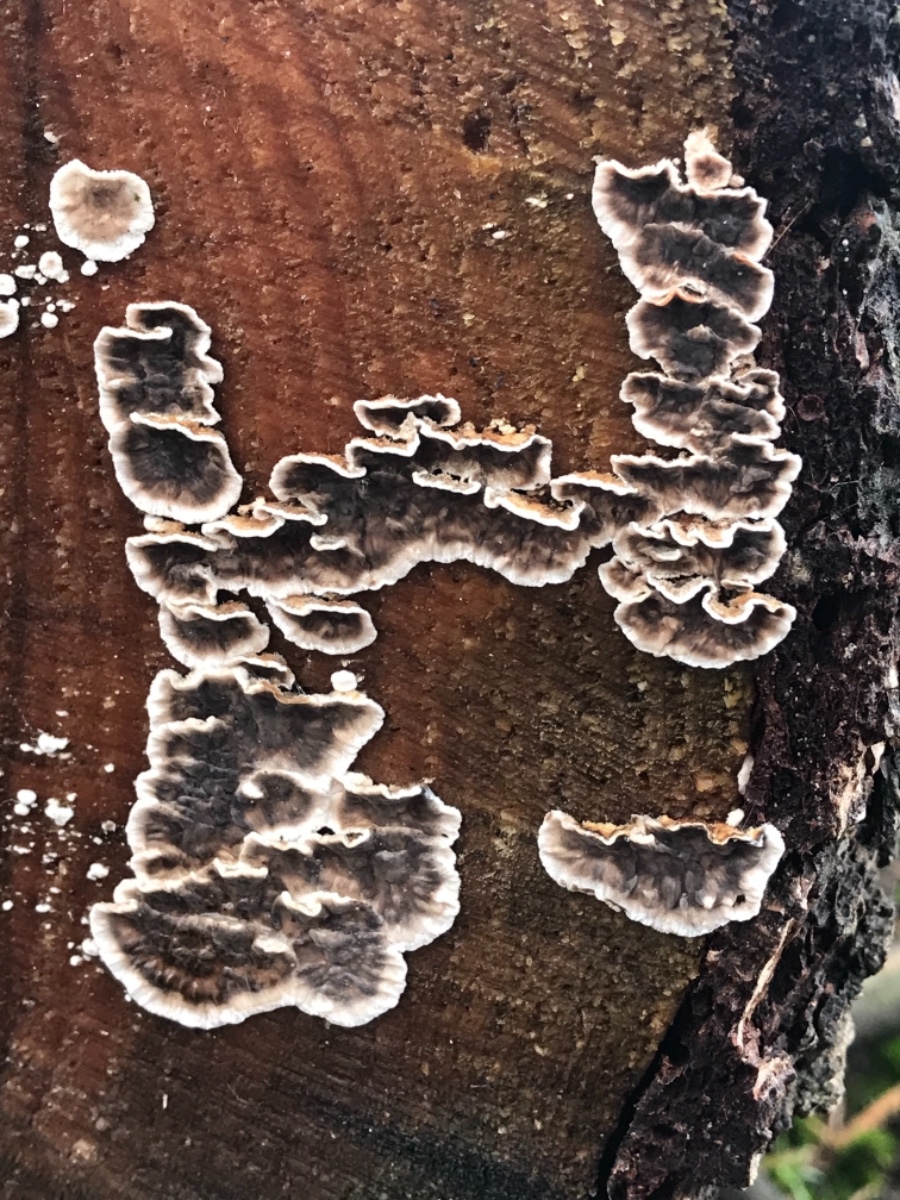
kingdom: Fungi
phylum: Basidiomycota
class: Agaricomycetes
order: Russulales
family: Stereaceae
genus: Stereum
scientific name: Stereum sanguinolentum
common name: blødende lædersvamp
